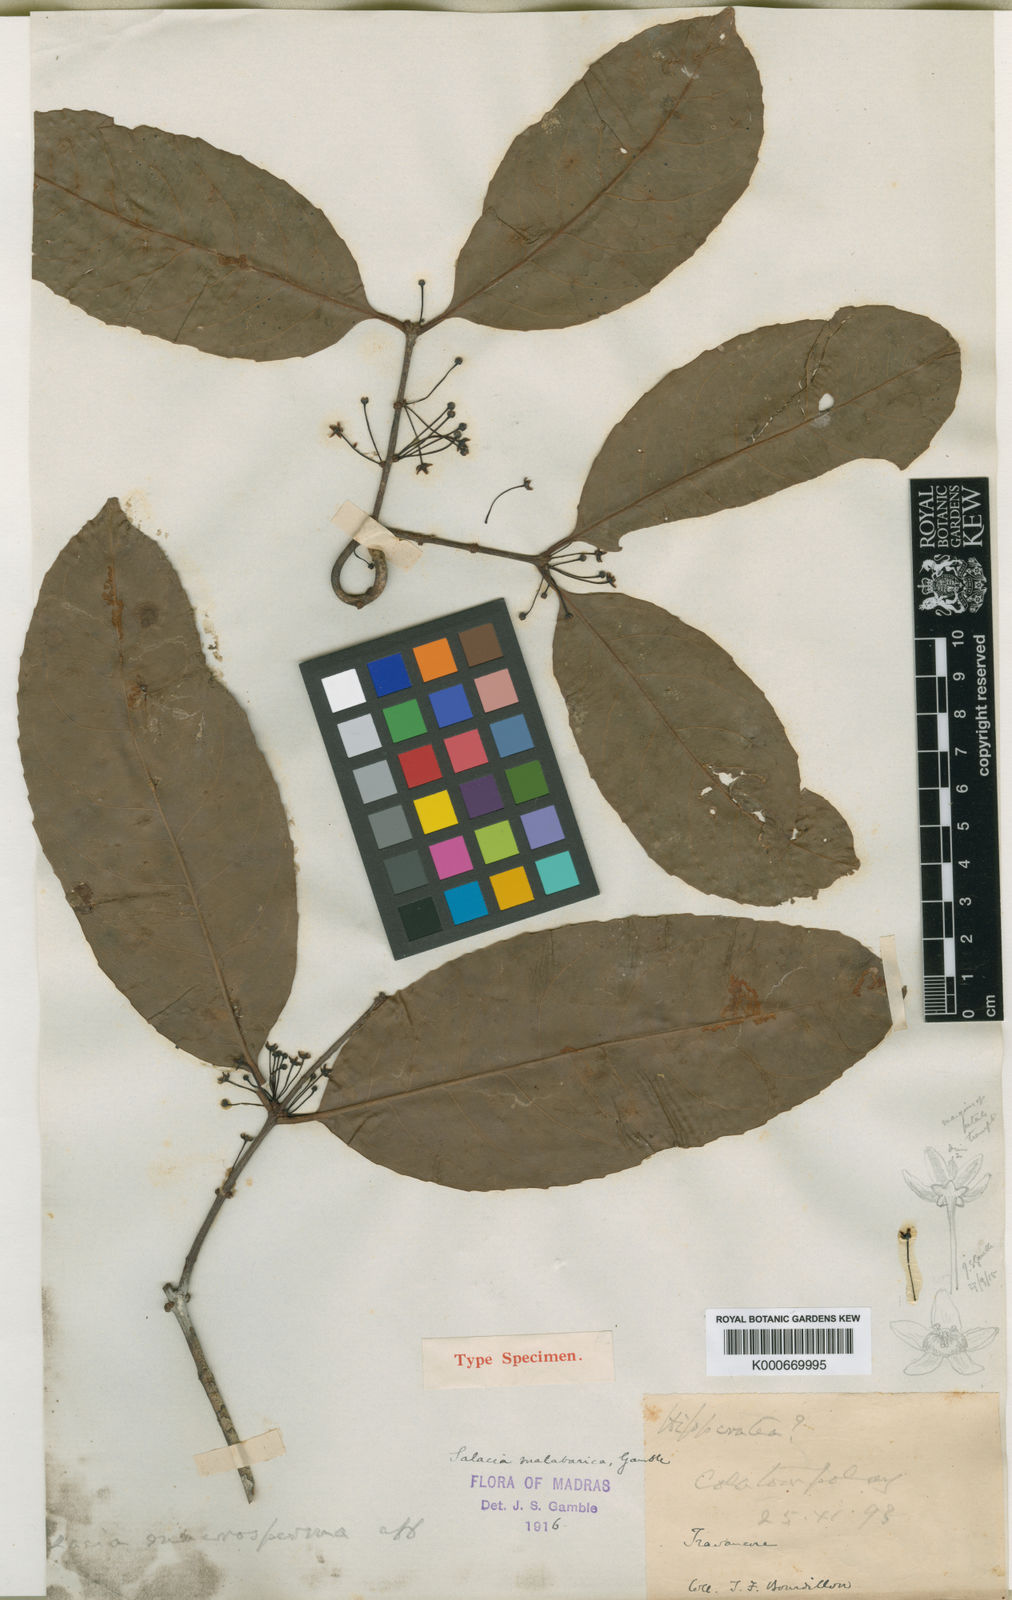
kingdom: Plantae
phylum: Tracheophyta
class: Magnoliopsida
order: Celastrales
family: Celastraceae
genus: Salacia
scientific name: Salacia malabarica
